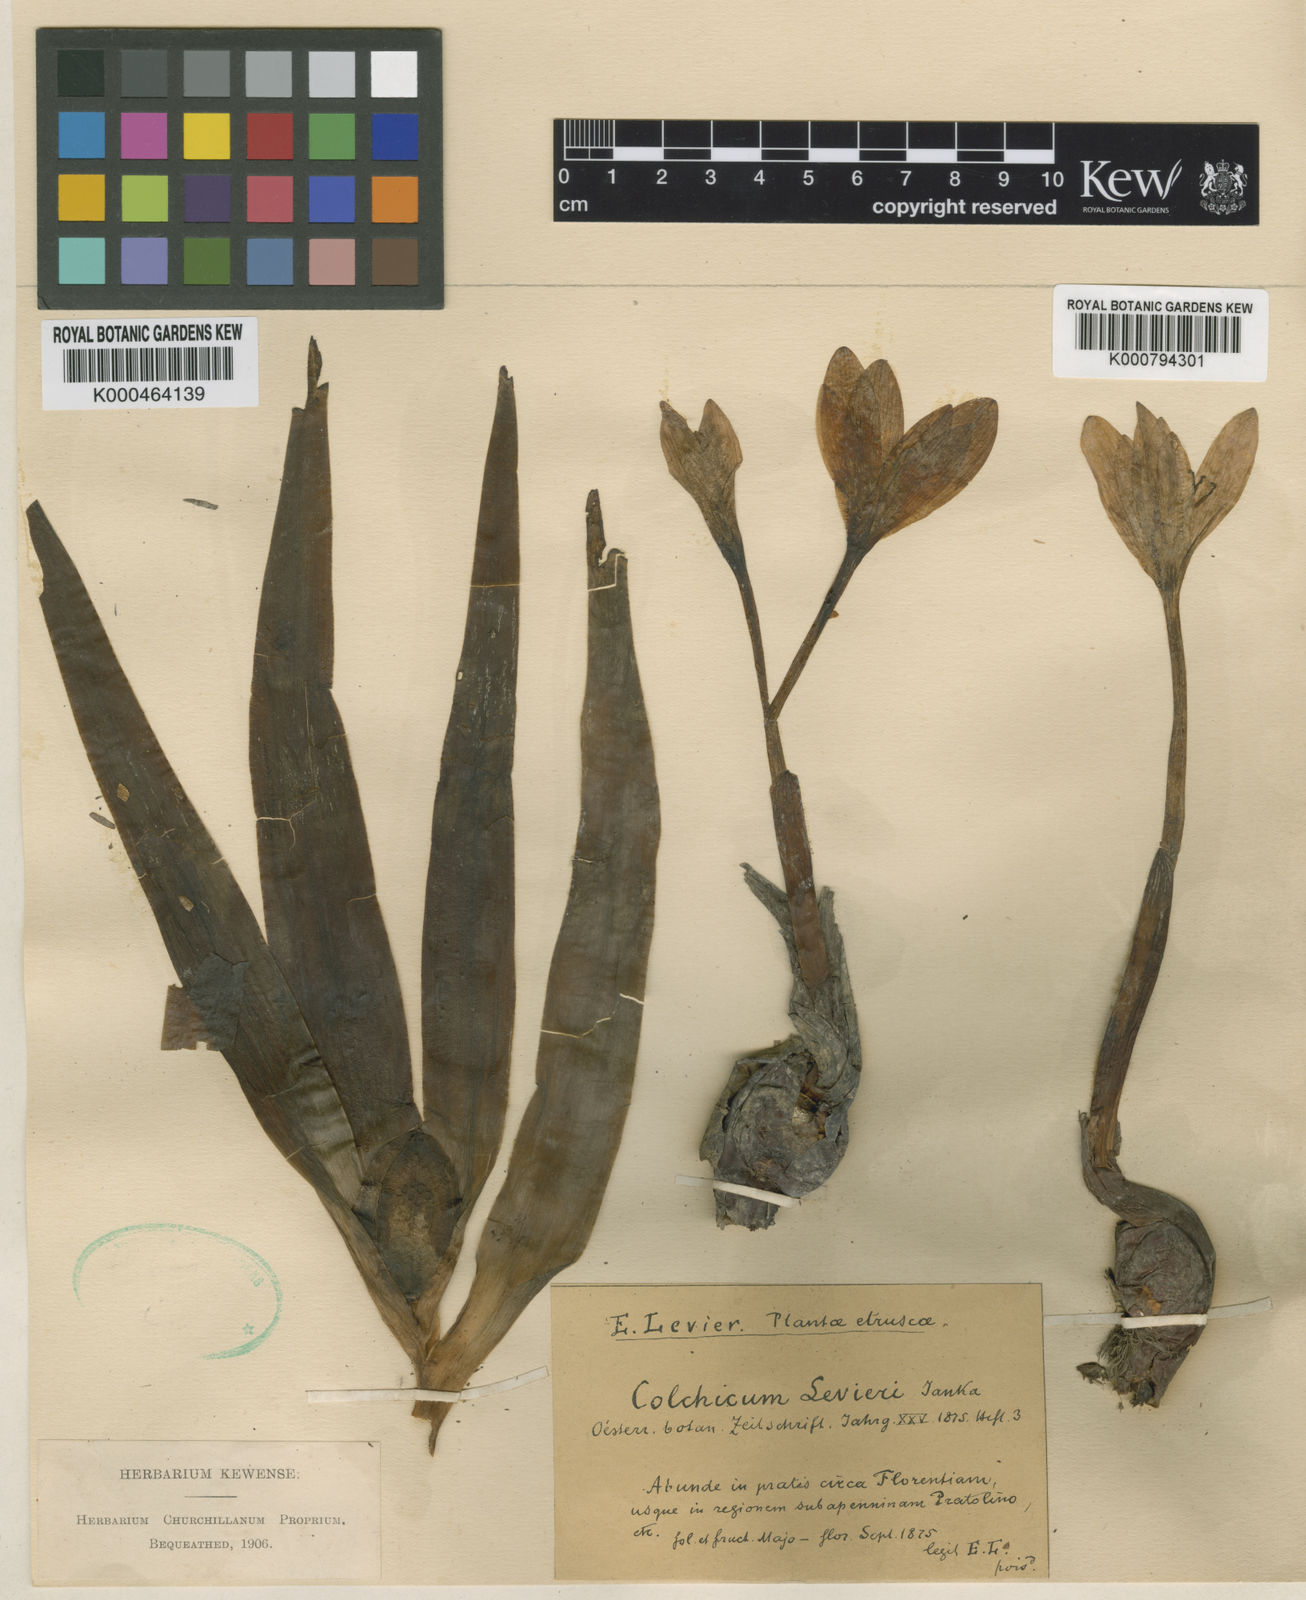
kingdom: Plantae
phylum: Tracheophyta
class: Liliopsida
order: Liliales
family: Colchicaceae
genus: Colchicum
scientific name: Colchicum lusitanum
